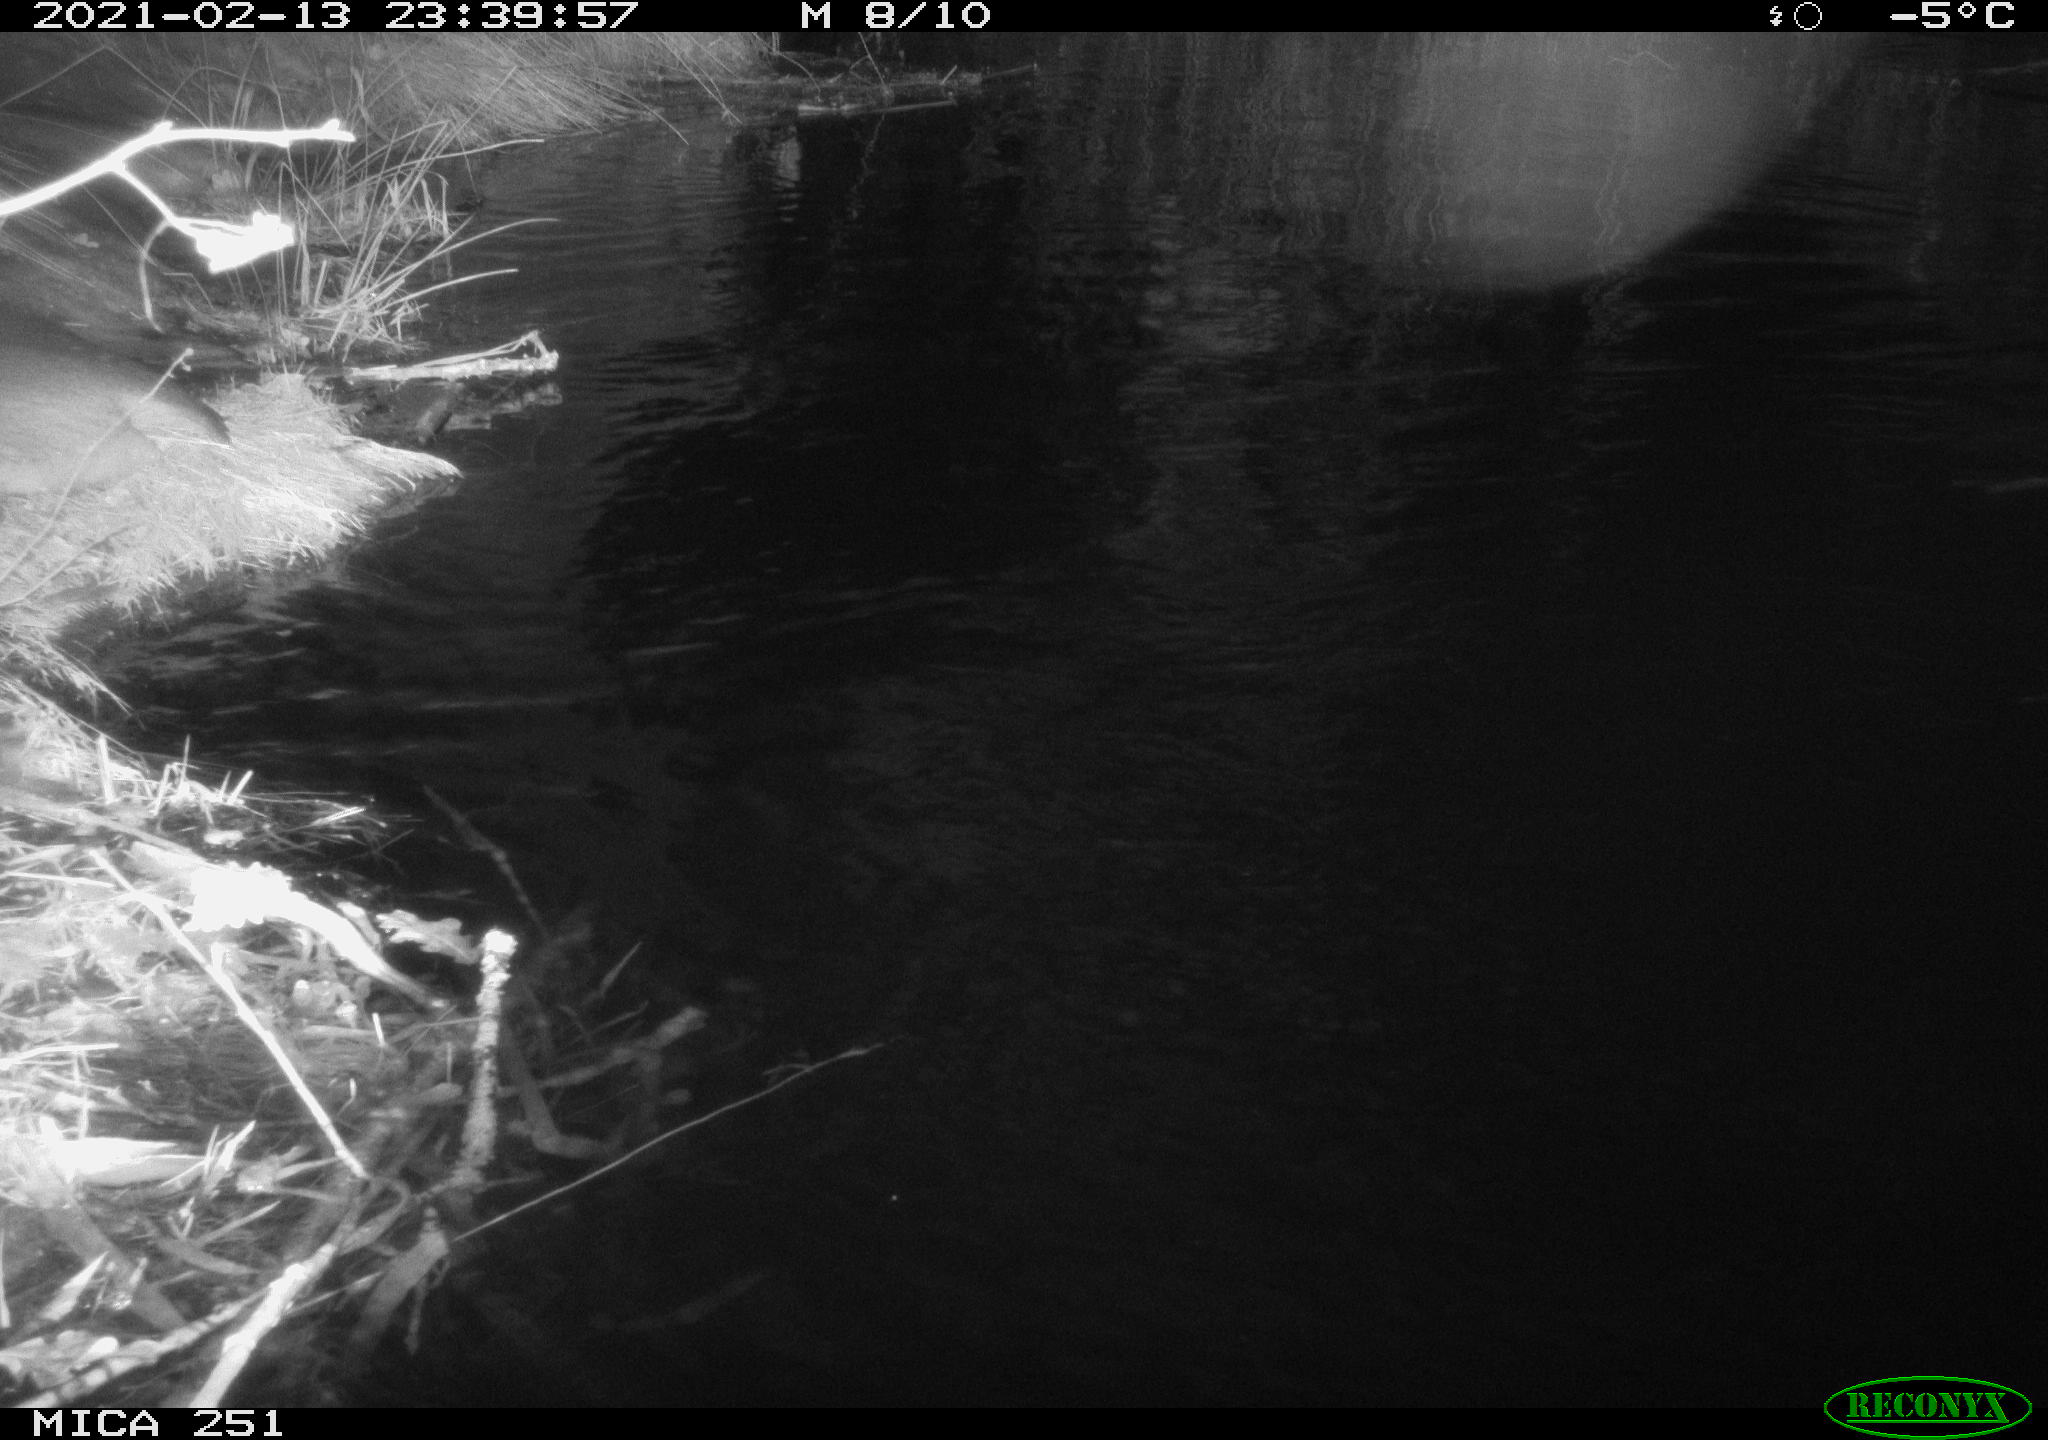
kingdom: Animalia
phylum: Chordata
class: Mammalia
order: Rodentia
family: Castoridae
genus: Castor
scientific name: Castor fiber
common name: Eurasian beaver
